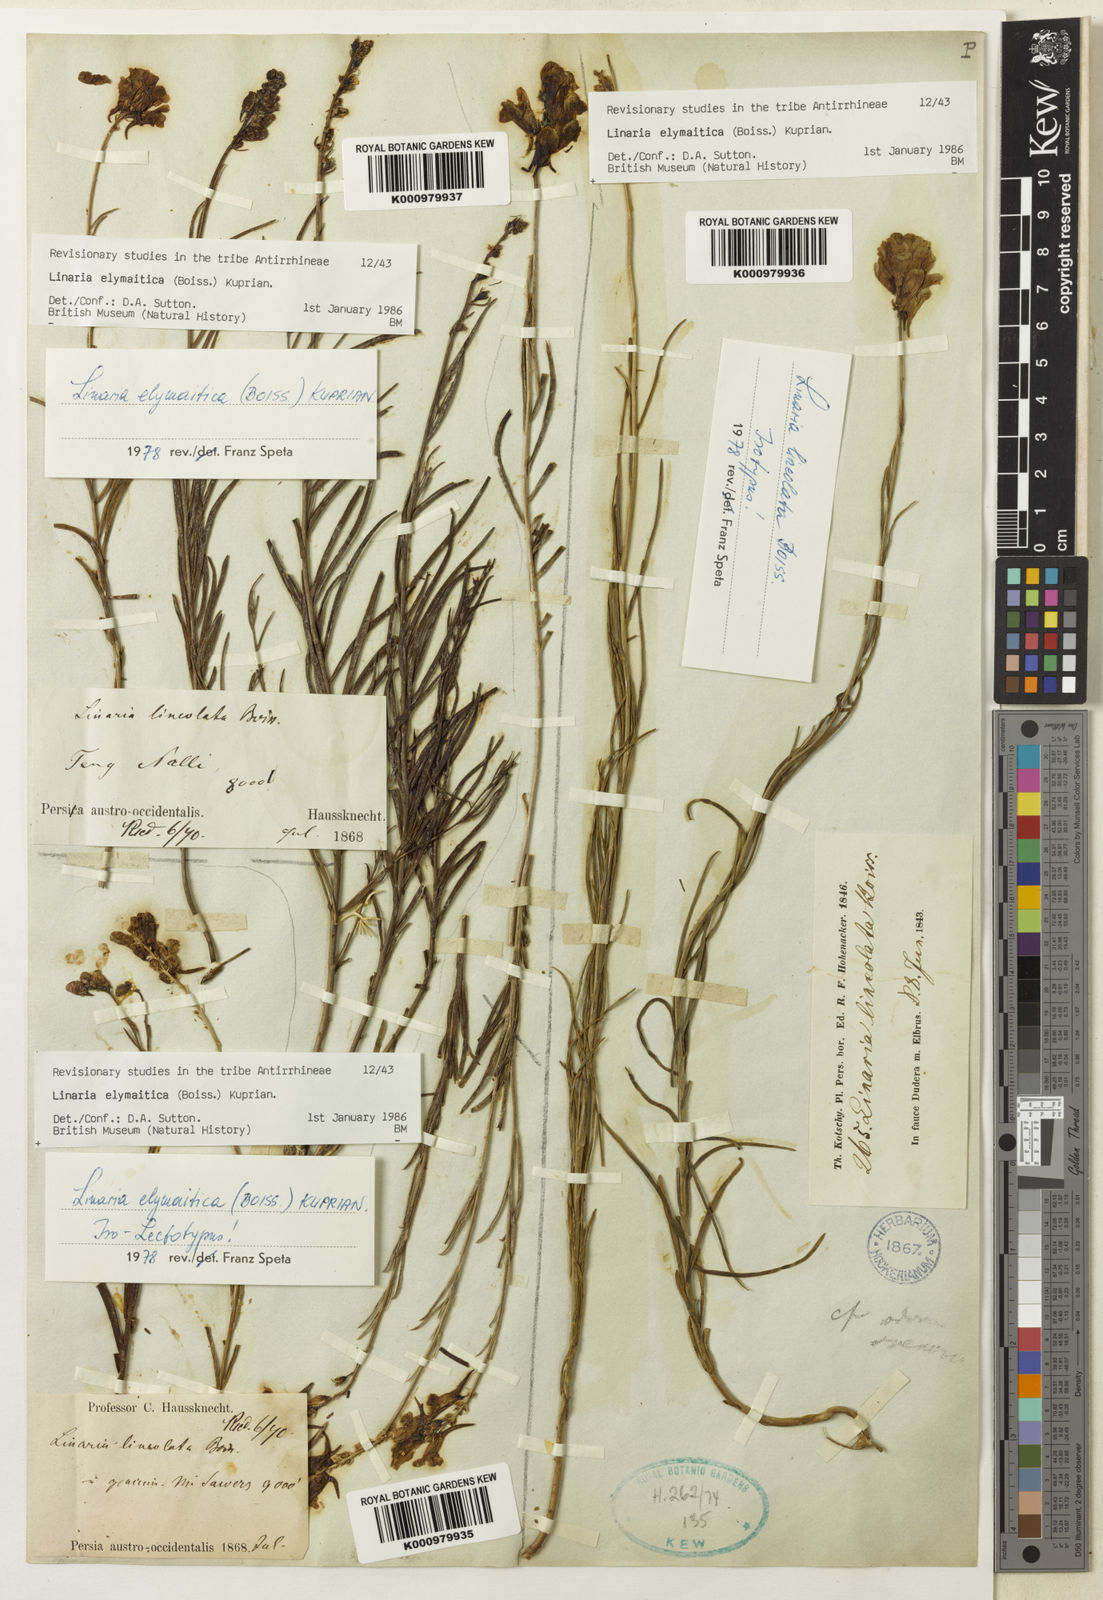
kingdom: Plantae
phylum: Tracheophyta
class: Magnoliopsida
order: Lamiales
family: Plantaginaceae
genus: Linaria
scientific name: Linaria elymaitica
